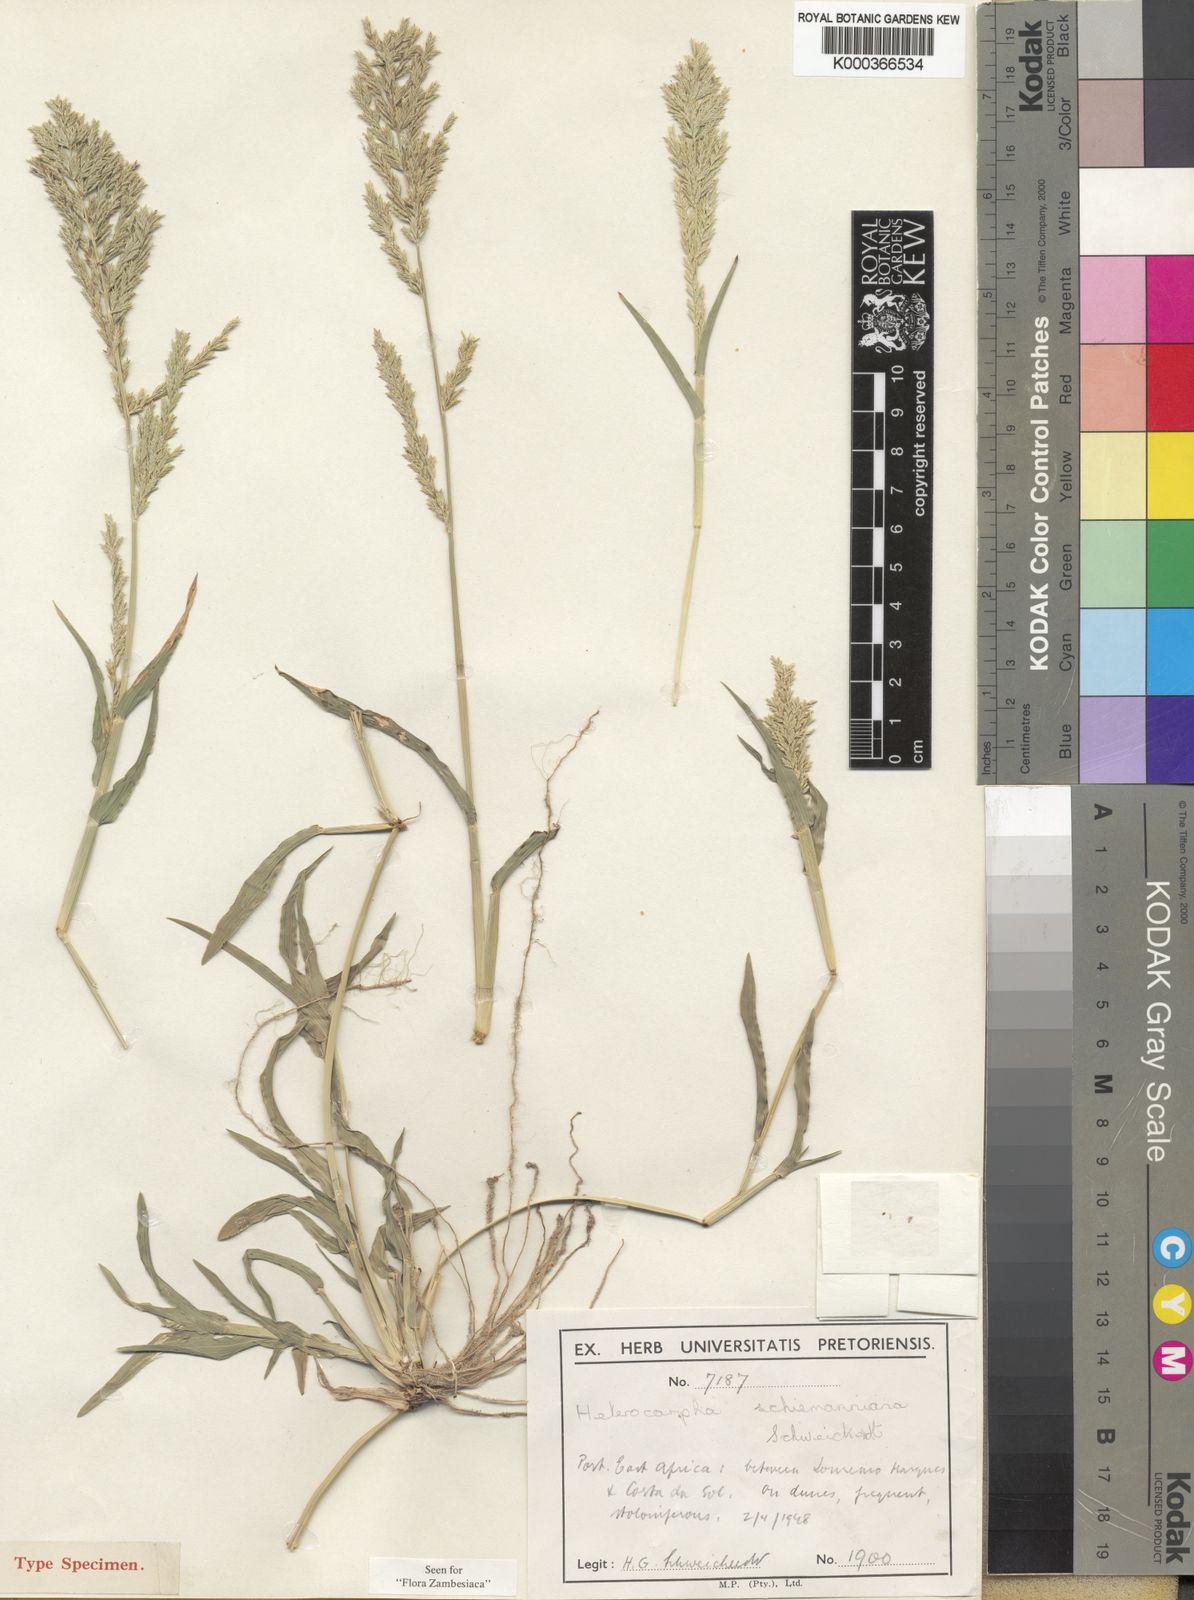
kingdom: Plantae
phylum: Tracheophyta
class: Liliopsida
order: Poales
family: Poaceae
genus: Brachychloa
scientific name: Brachychloa schiemanniana
